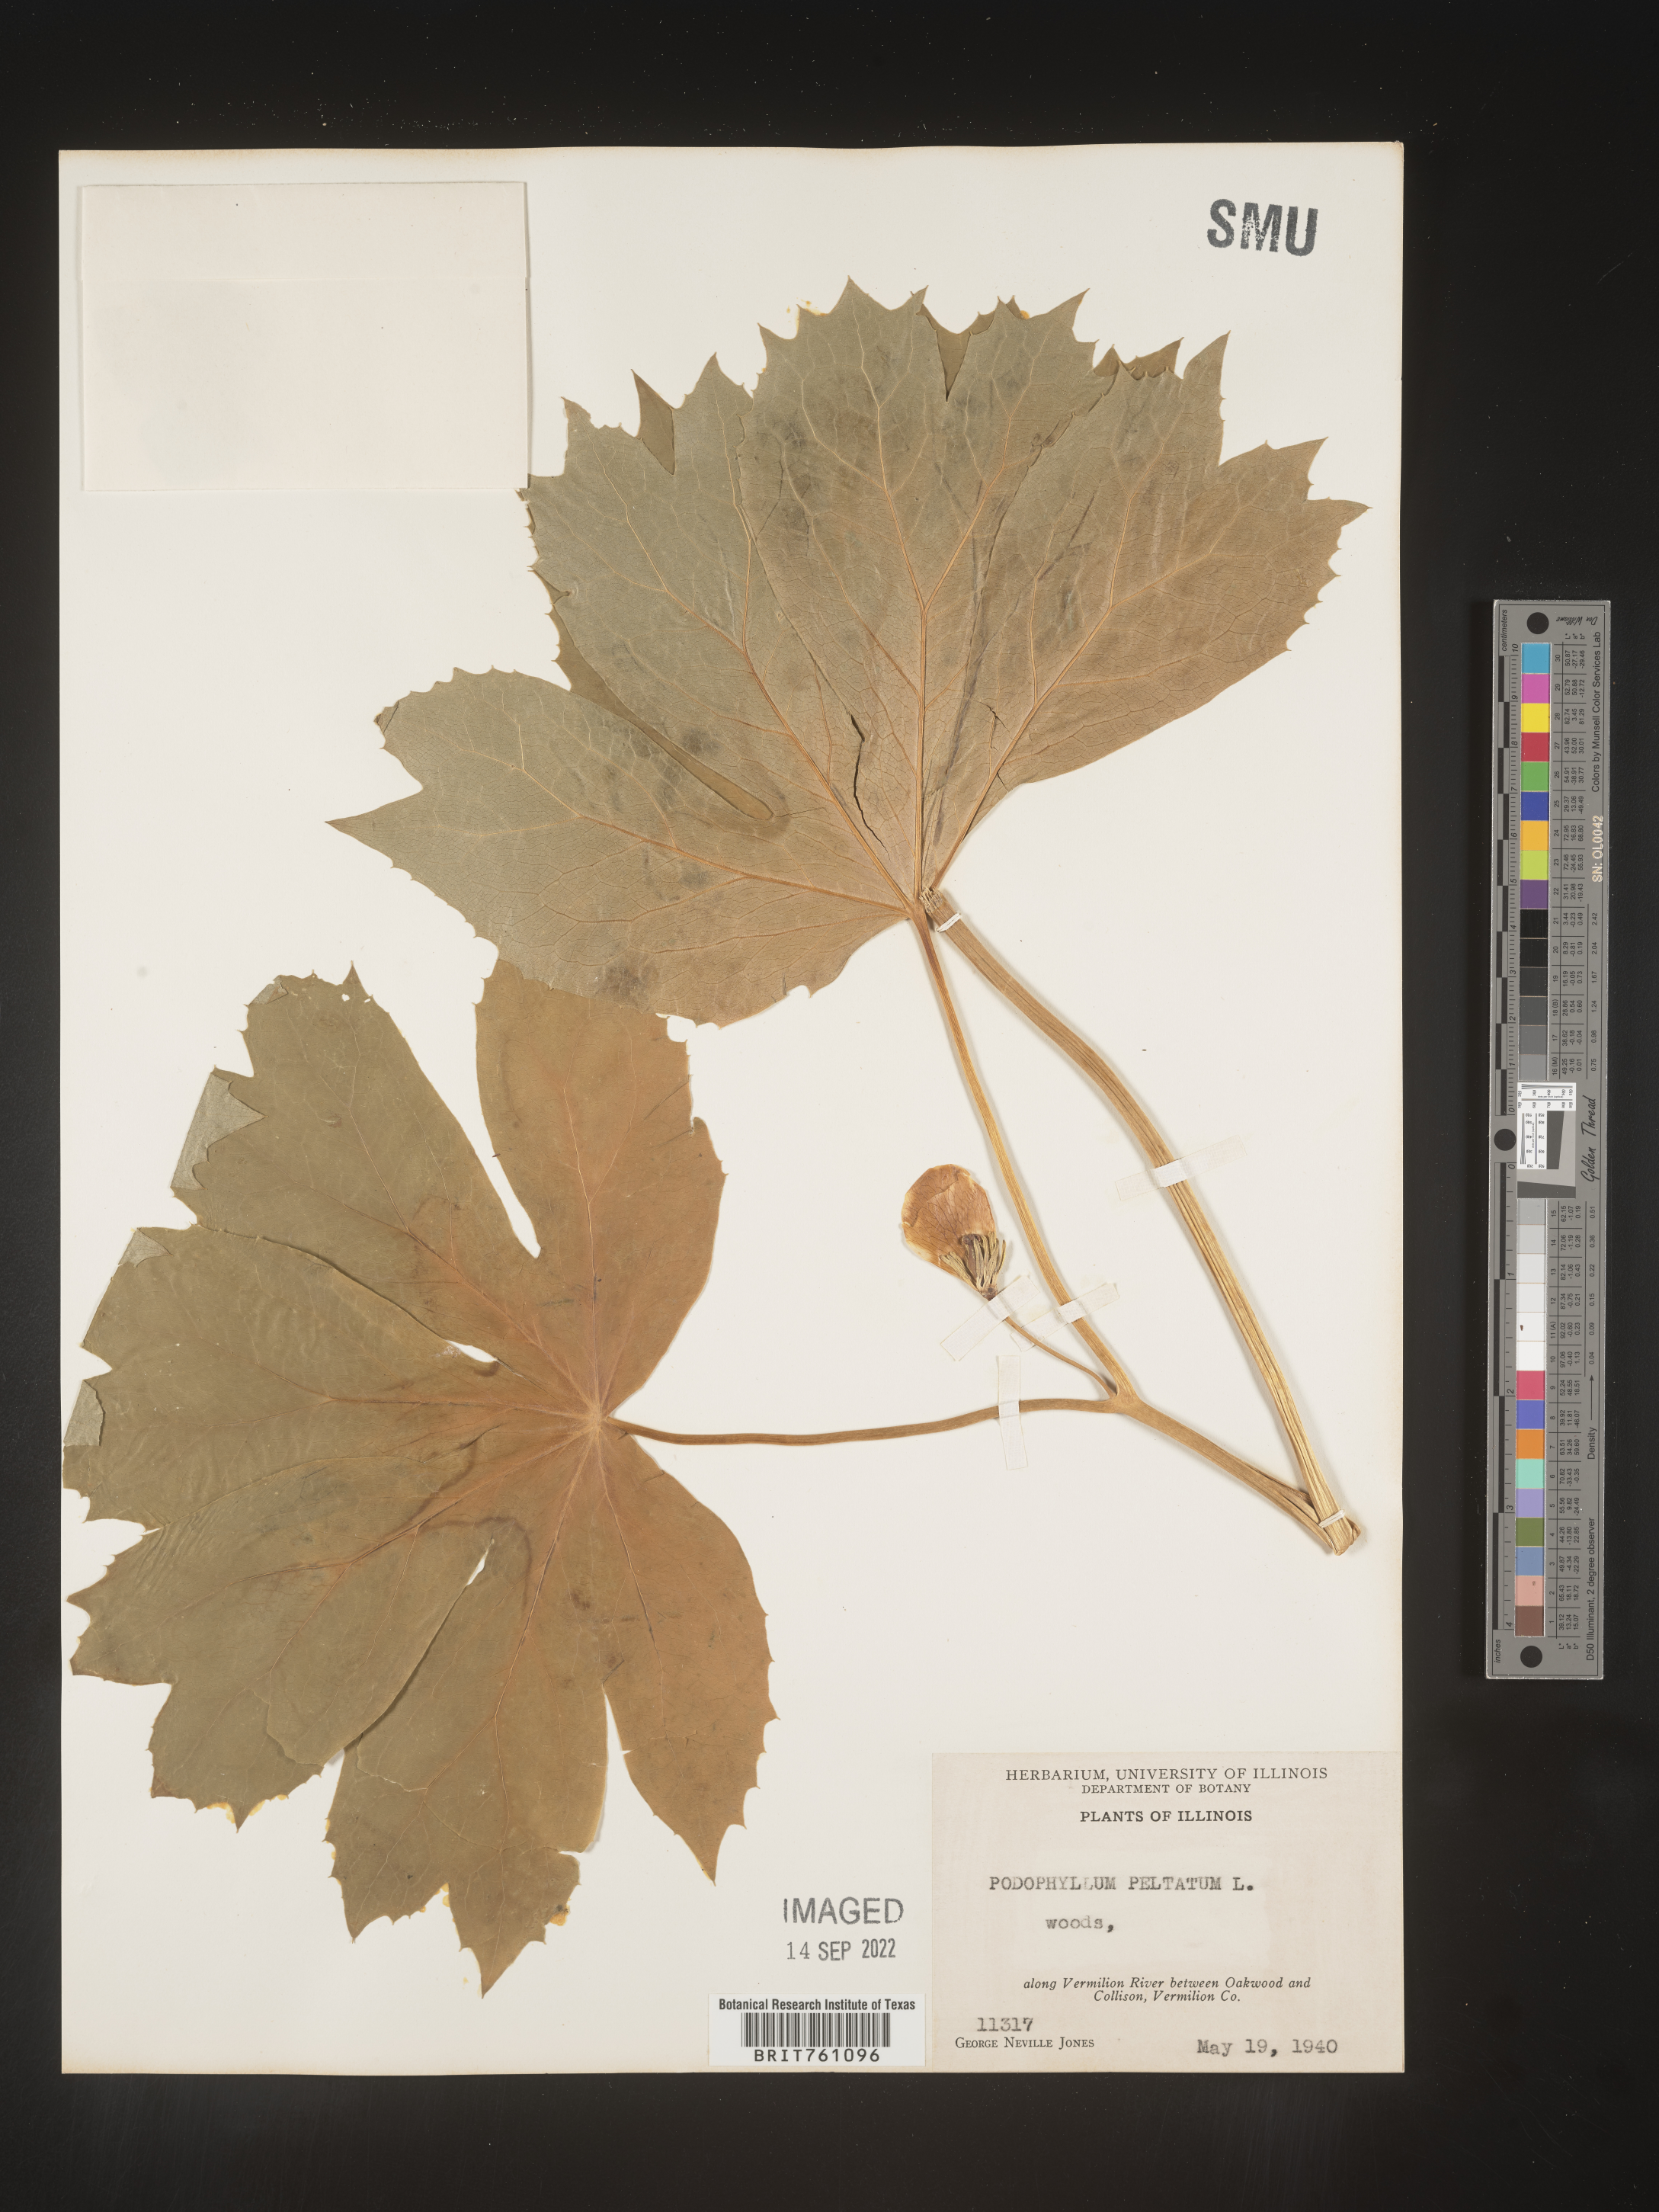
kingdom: Plantae
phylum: Tracheophyta
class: Magnoliopsida
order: Ranunculales
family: Berberidaceae
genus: Podophyllum
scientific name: Podophyllum peltatum
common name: Wild mandrake
